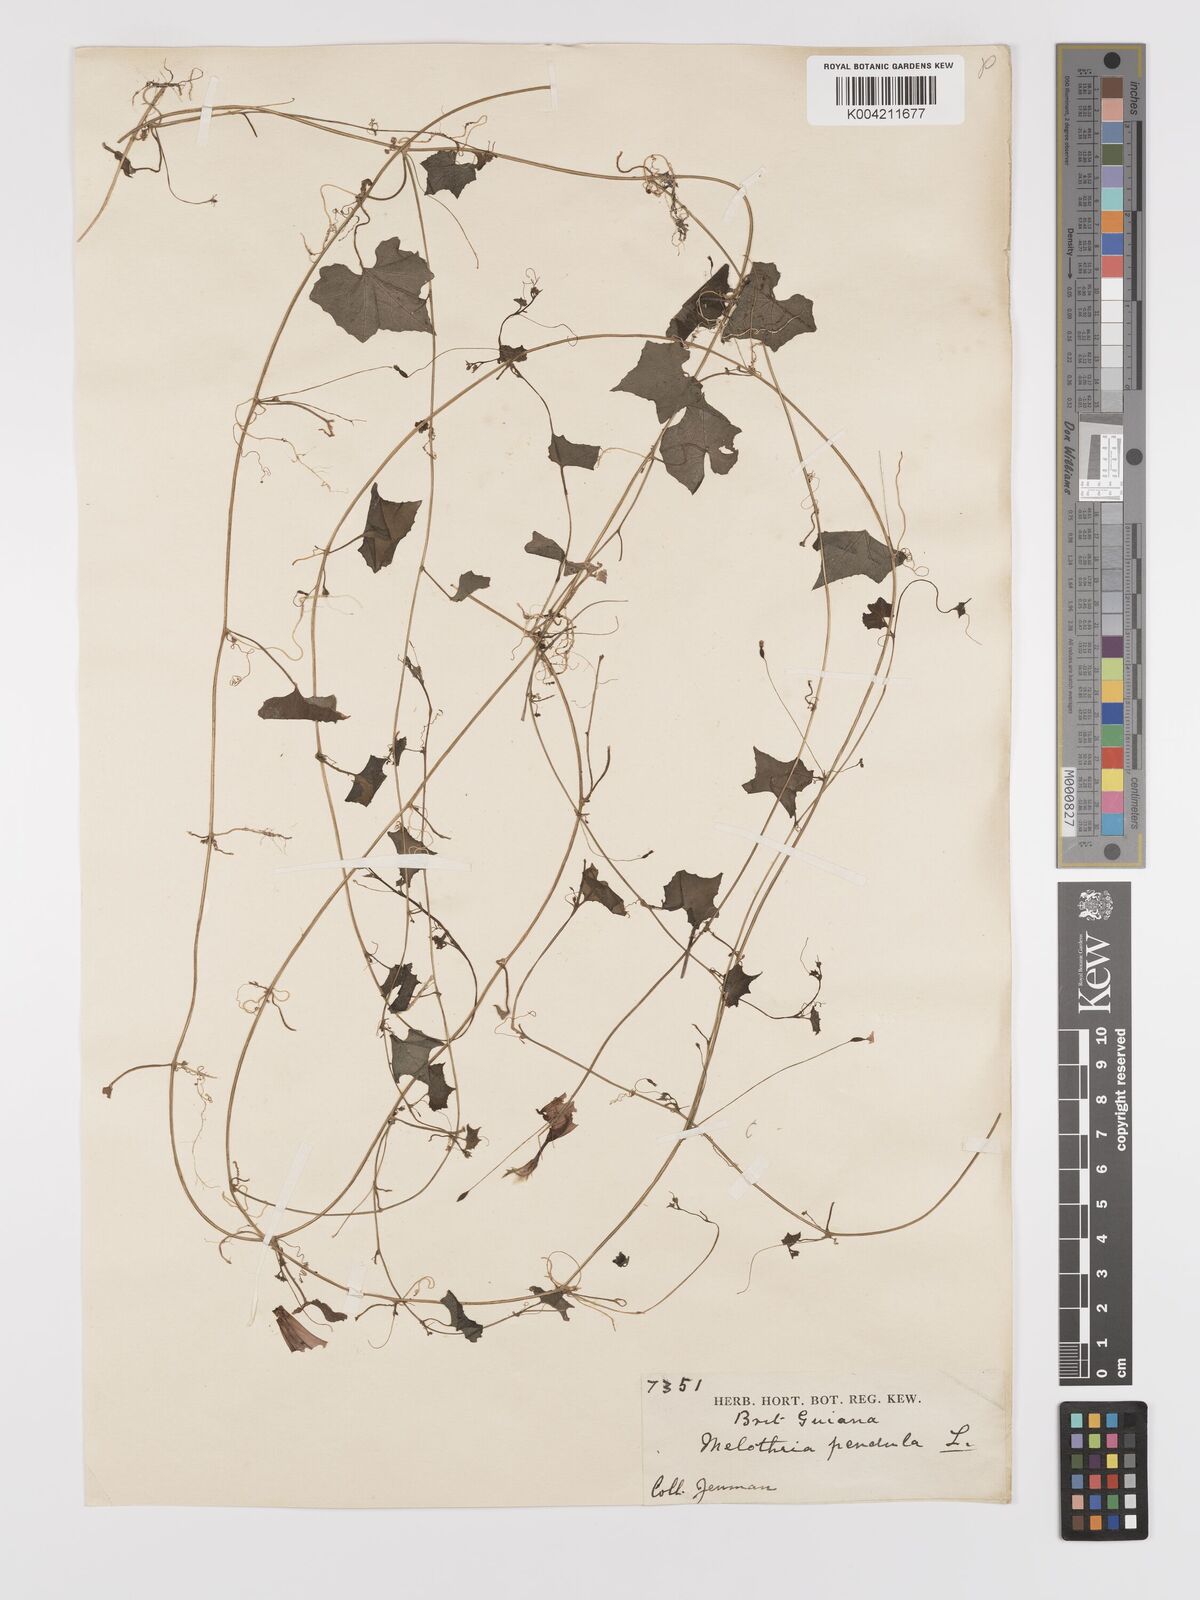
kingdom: Plantae
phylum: Tracheophyta
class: Magnoliopsida
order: Cucurbitales
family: Cucurbitaceae
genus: Melothria
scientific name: Melothria pendula
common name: Creeping-cucumber
